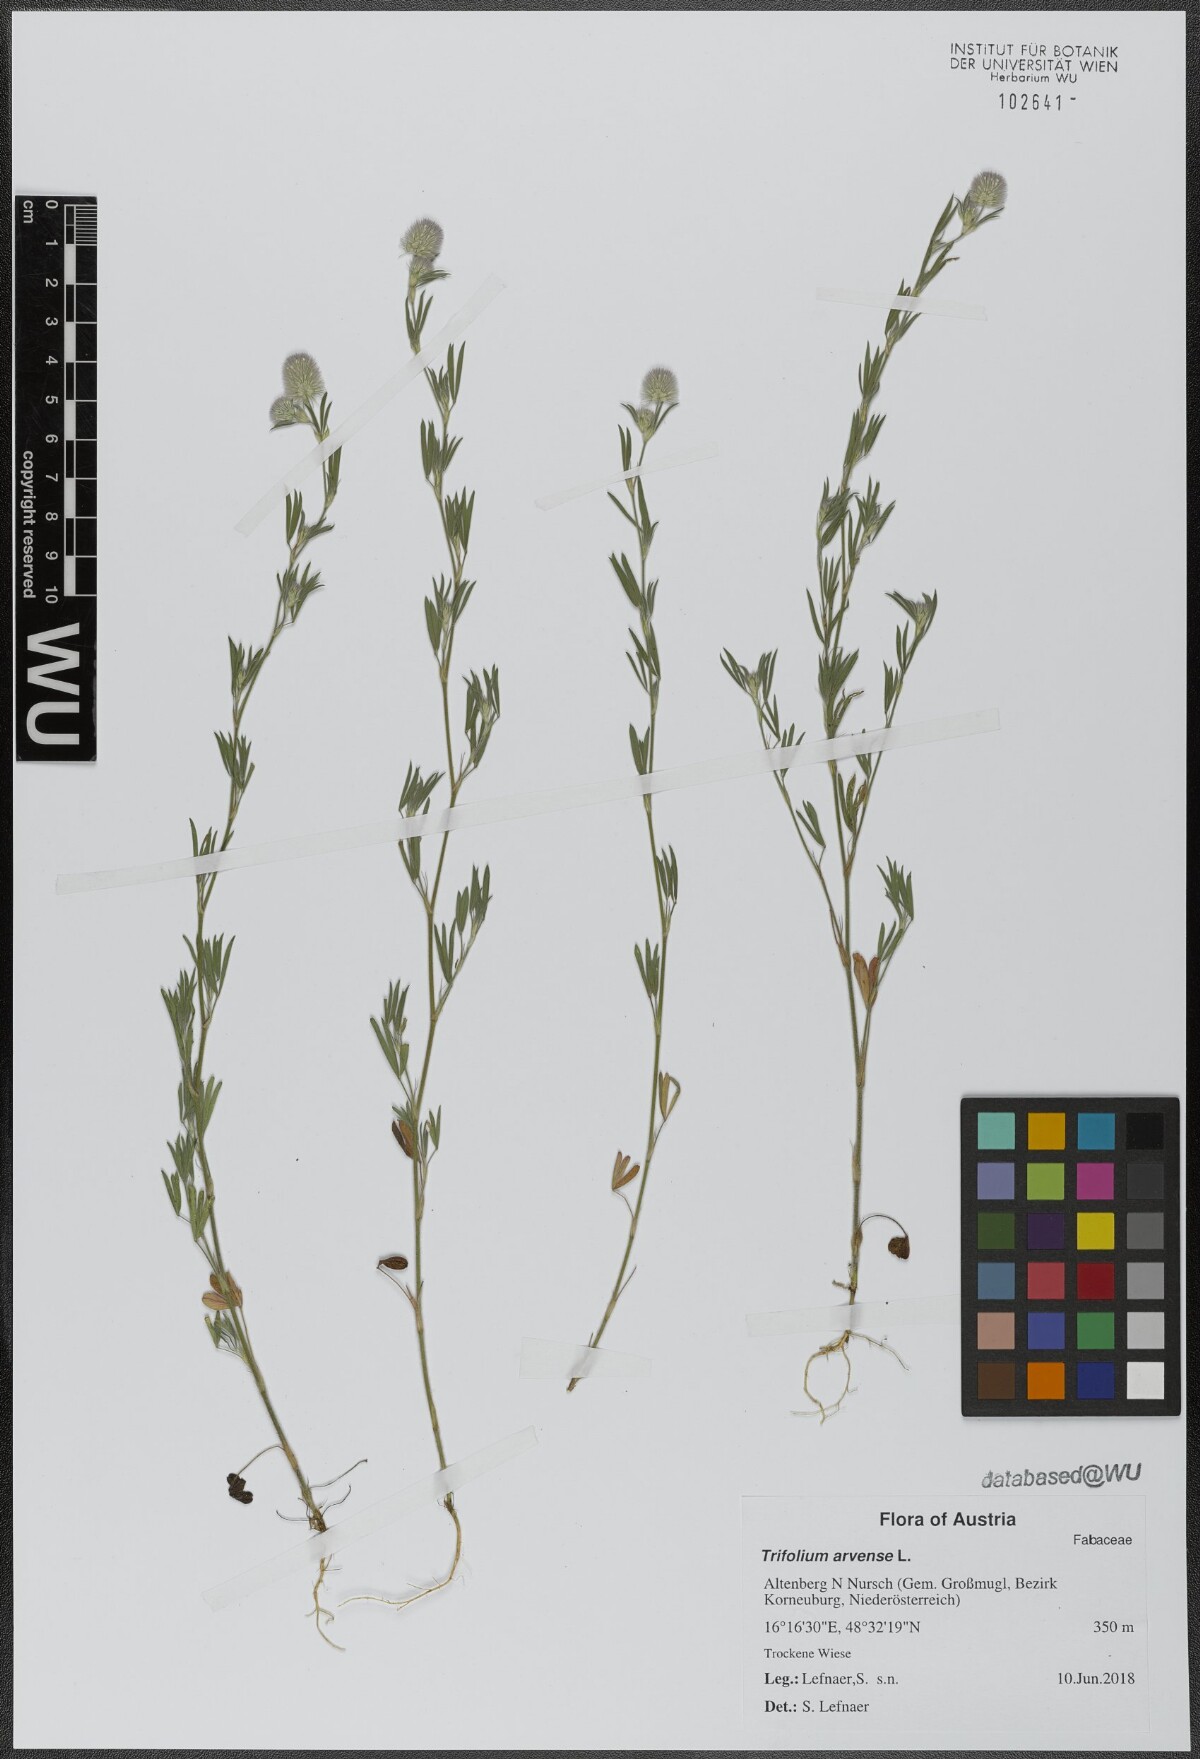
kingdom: Plantae
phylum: Tracheophyta
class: Magnoliopsida
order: Fabales
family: Fabaceae
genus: Trifolium
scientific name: Trifolium arvense
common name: Hare's-foot clover
